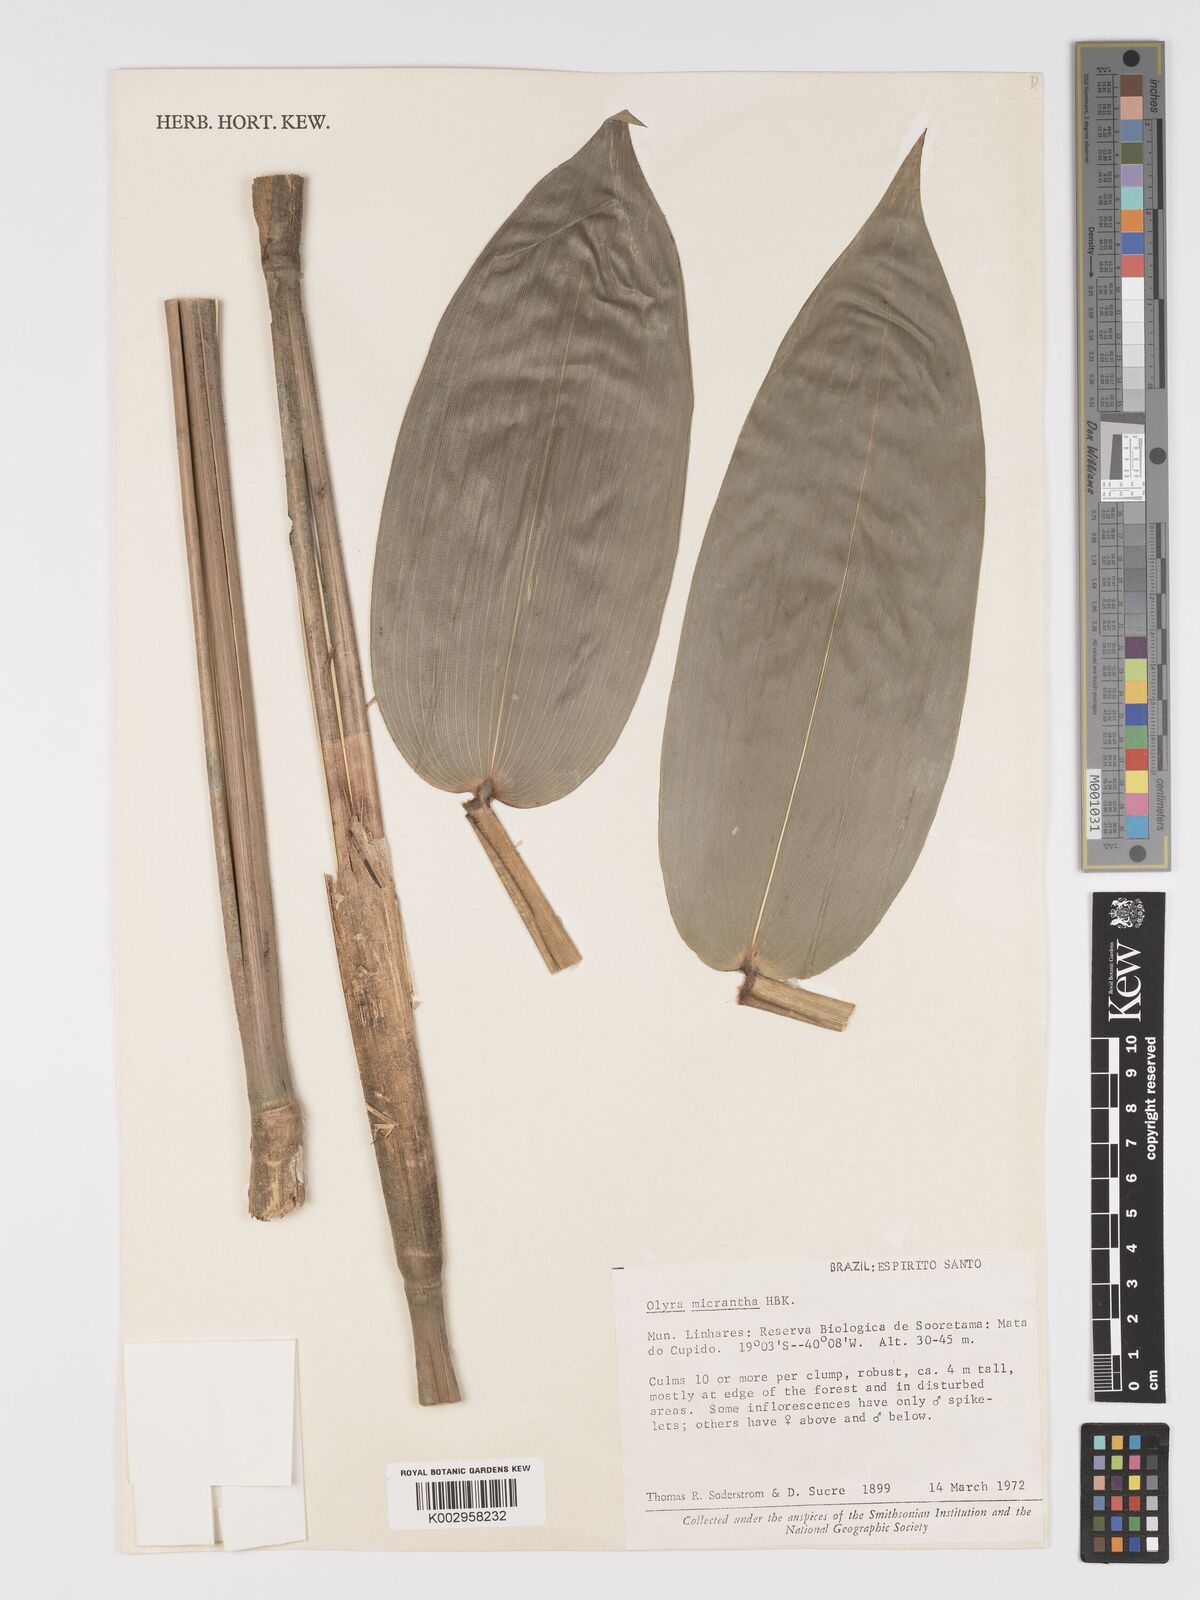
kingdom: Plantae
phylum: Tracheophyta
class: Liliopsida
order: Poales
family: Poaceae
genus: Taquara
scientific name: Taquara micrantha
